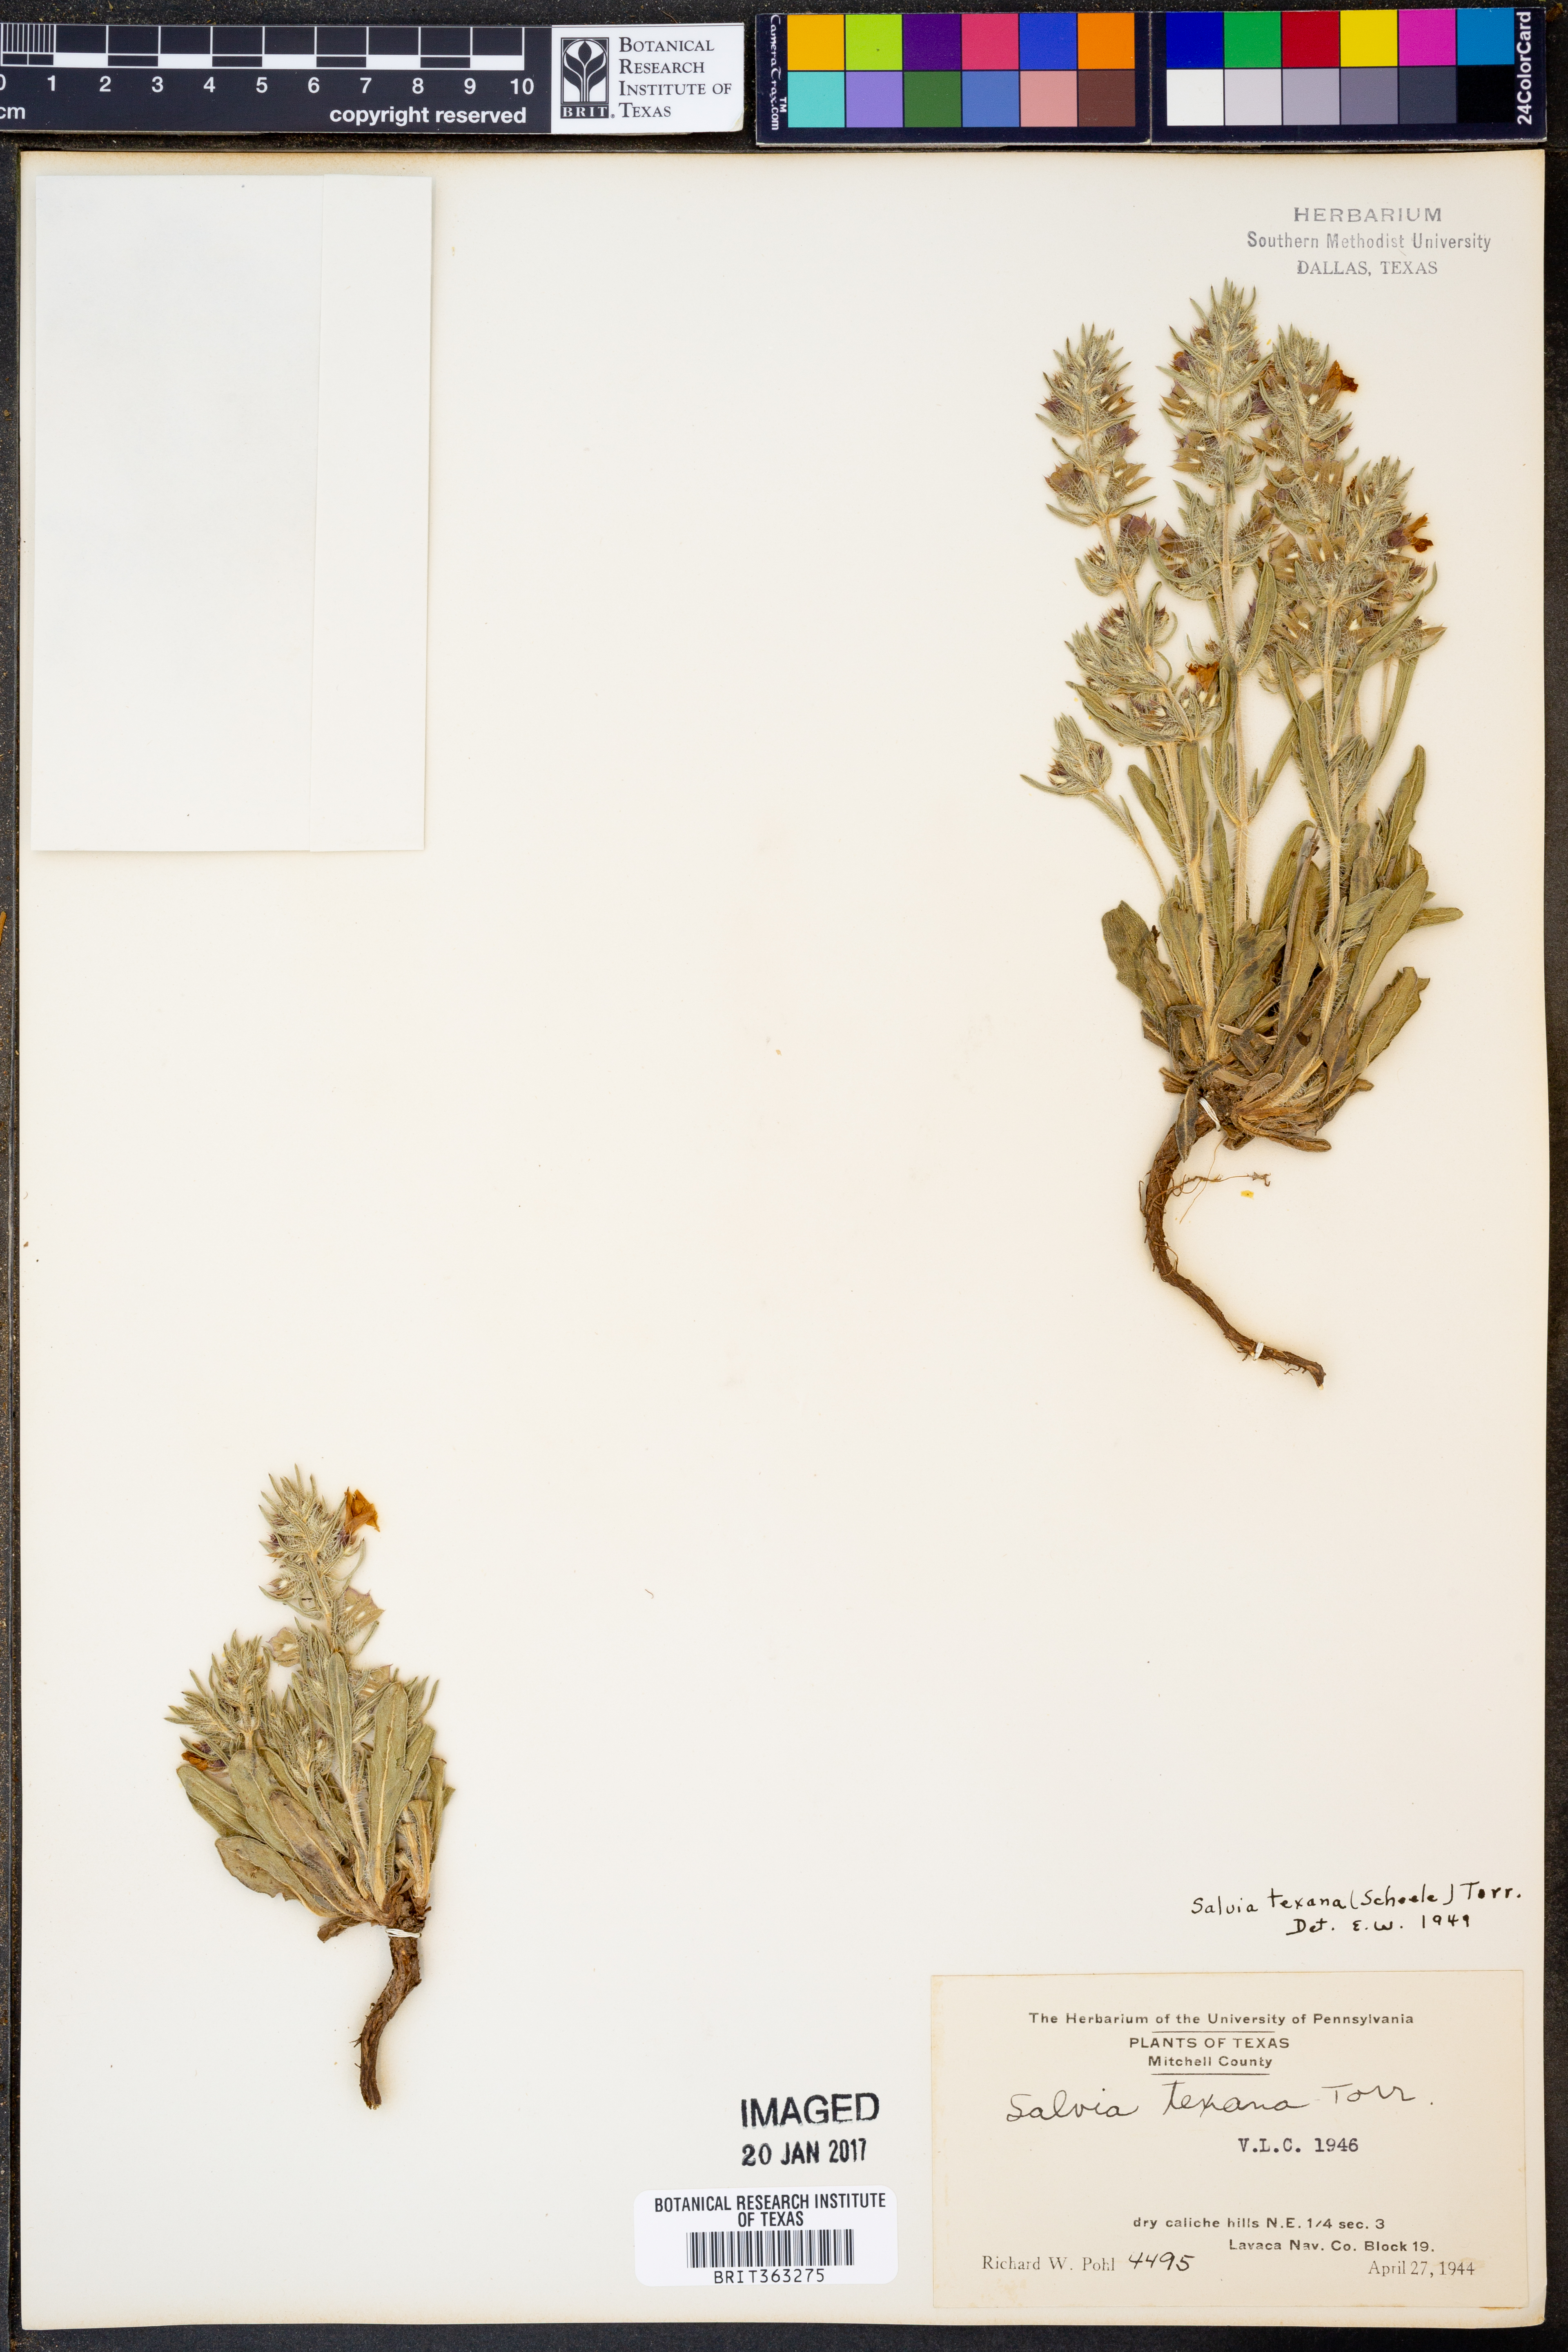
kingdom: Plantae
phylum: Tracheophyta
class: Magnoliopsida
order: Lamiales
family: Lamiaceae
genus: Salvia
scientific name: Salvia texana
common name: Texas sage
